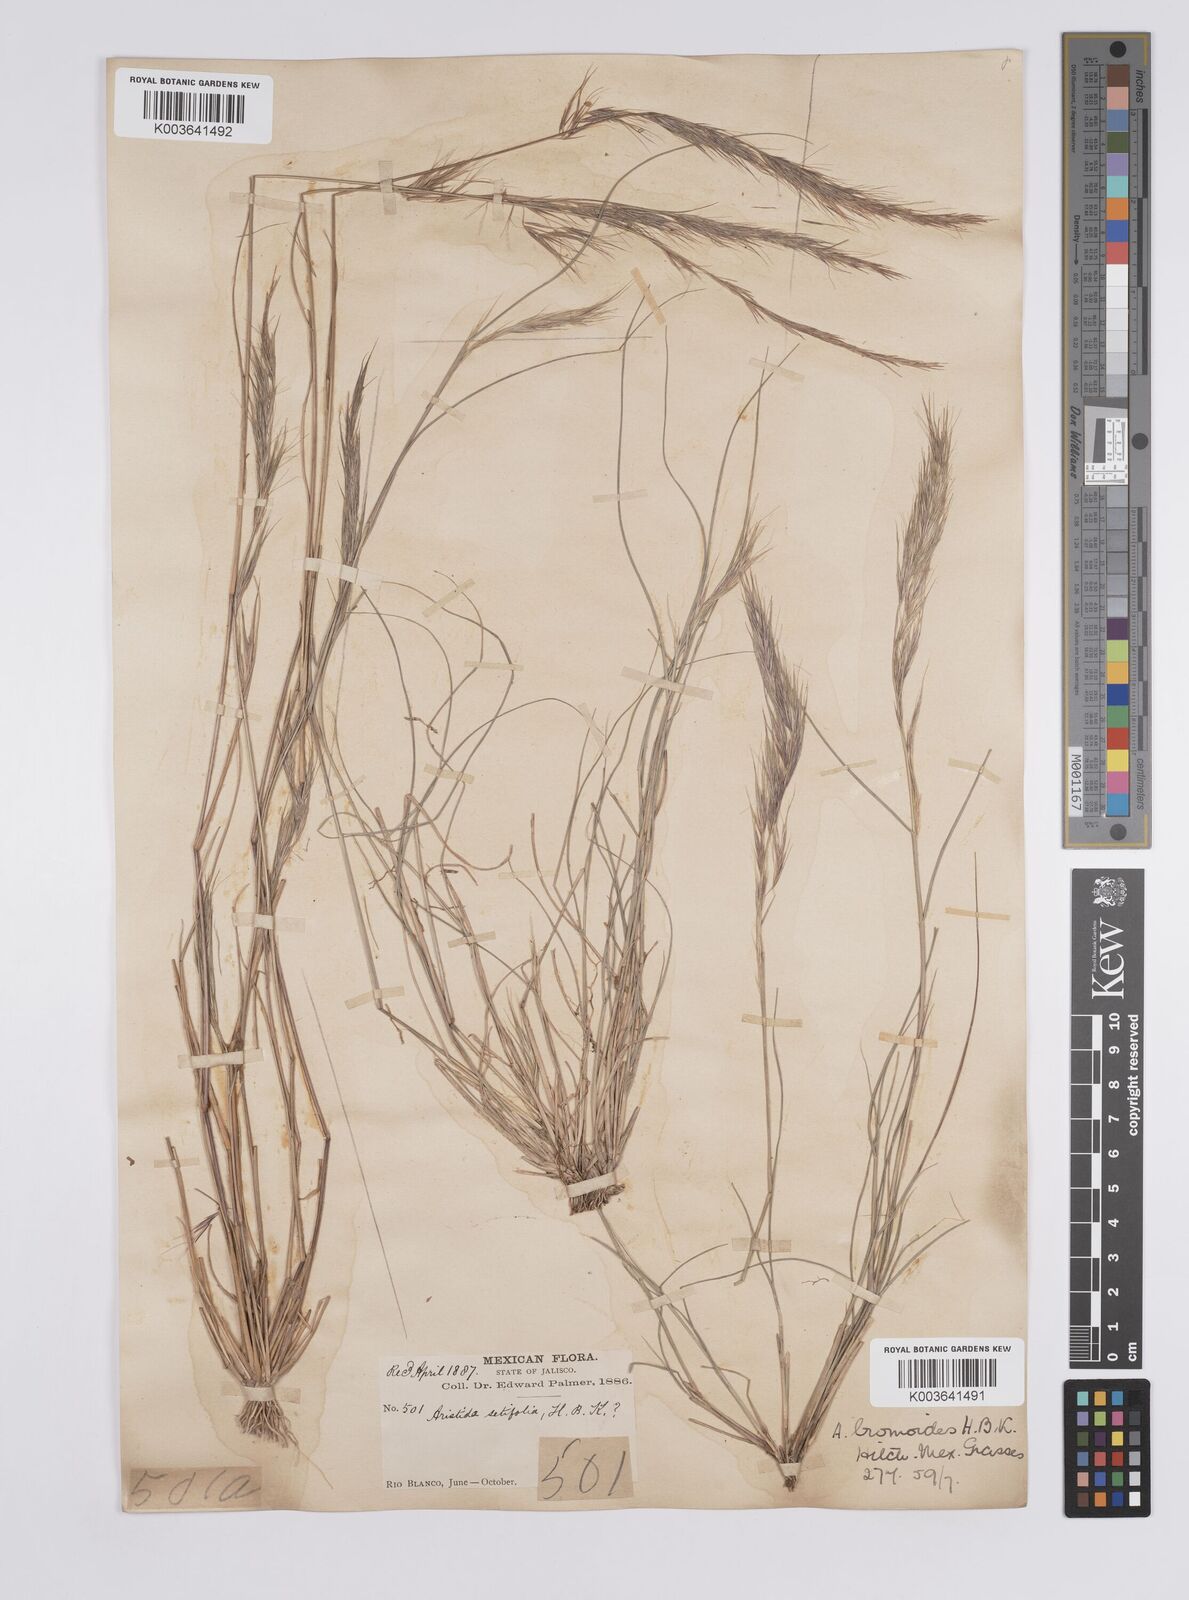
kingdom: Plantae
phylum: Tracheophyta
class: Liliopsida
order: Poales
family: Poaceae
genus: Aristida
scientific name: Aristida adscensionis
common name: Sixweeks threeawn
